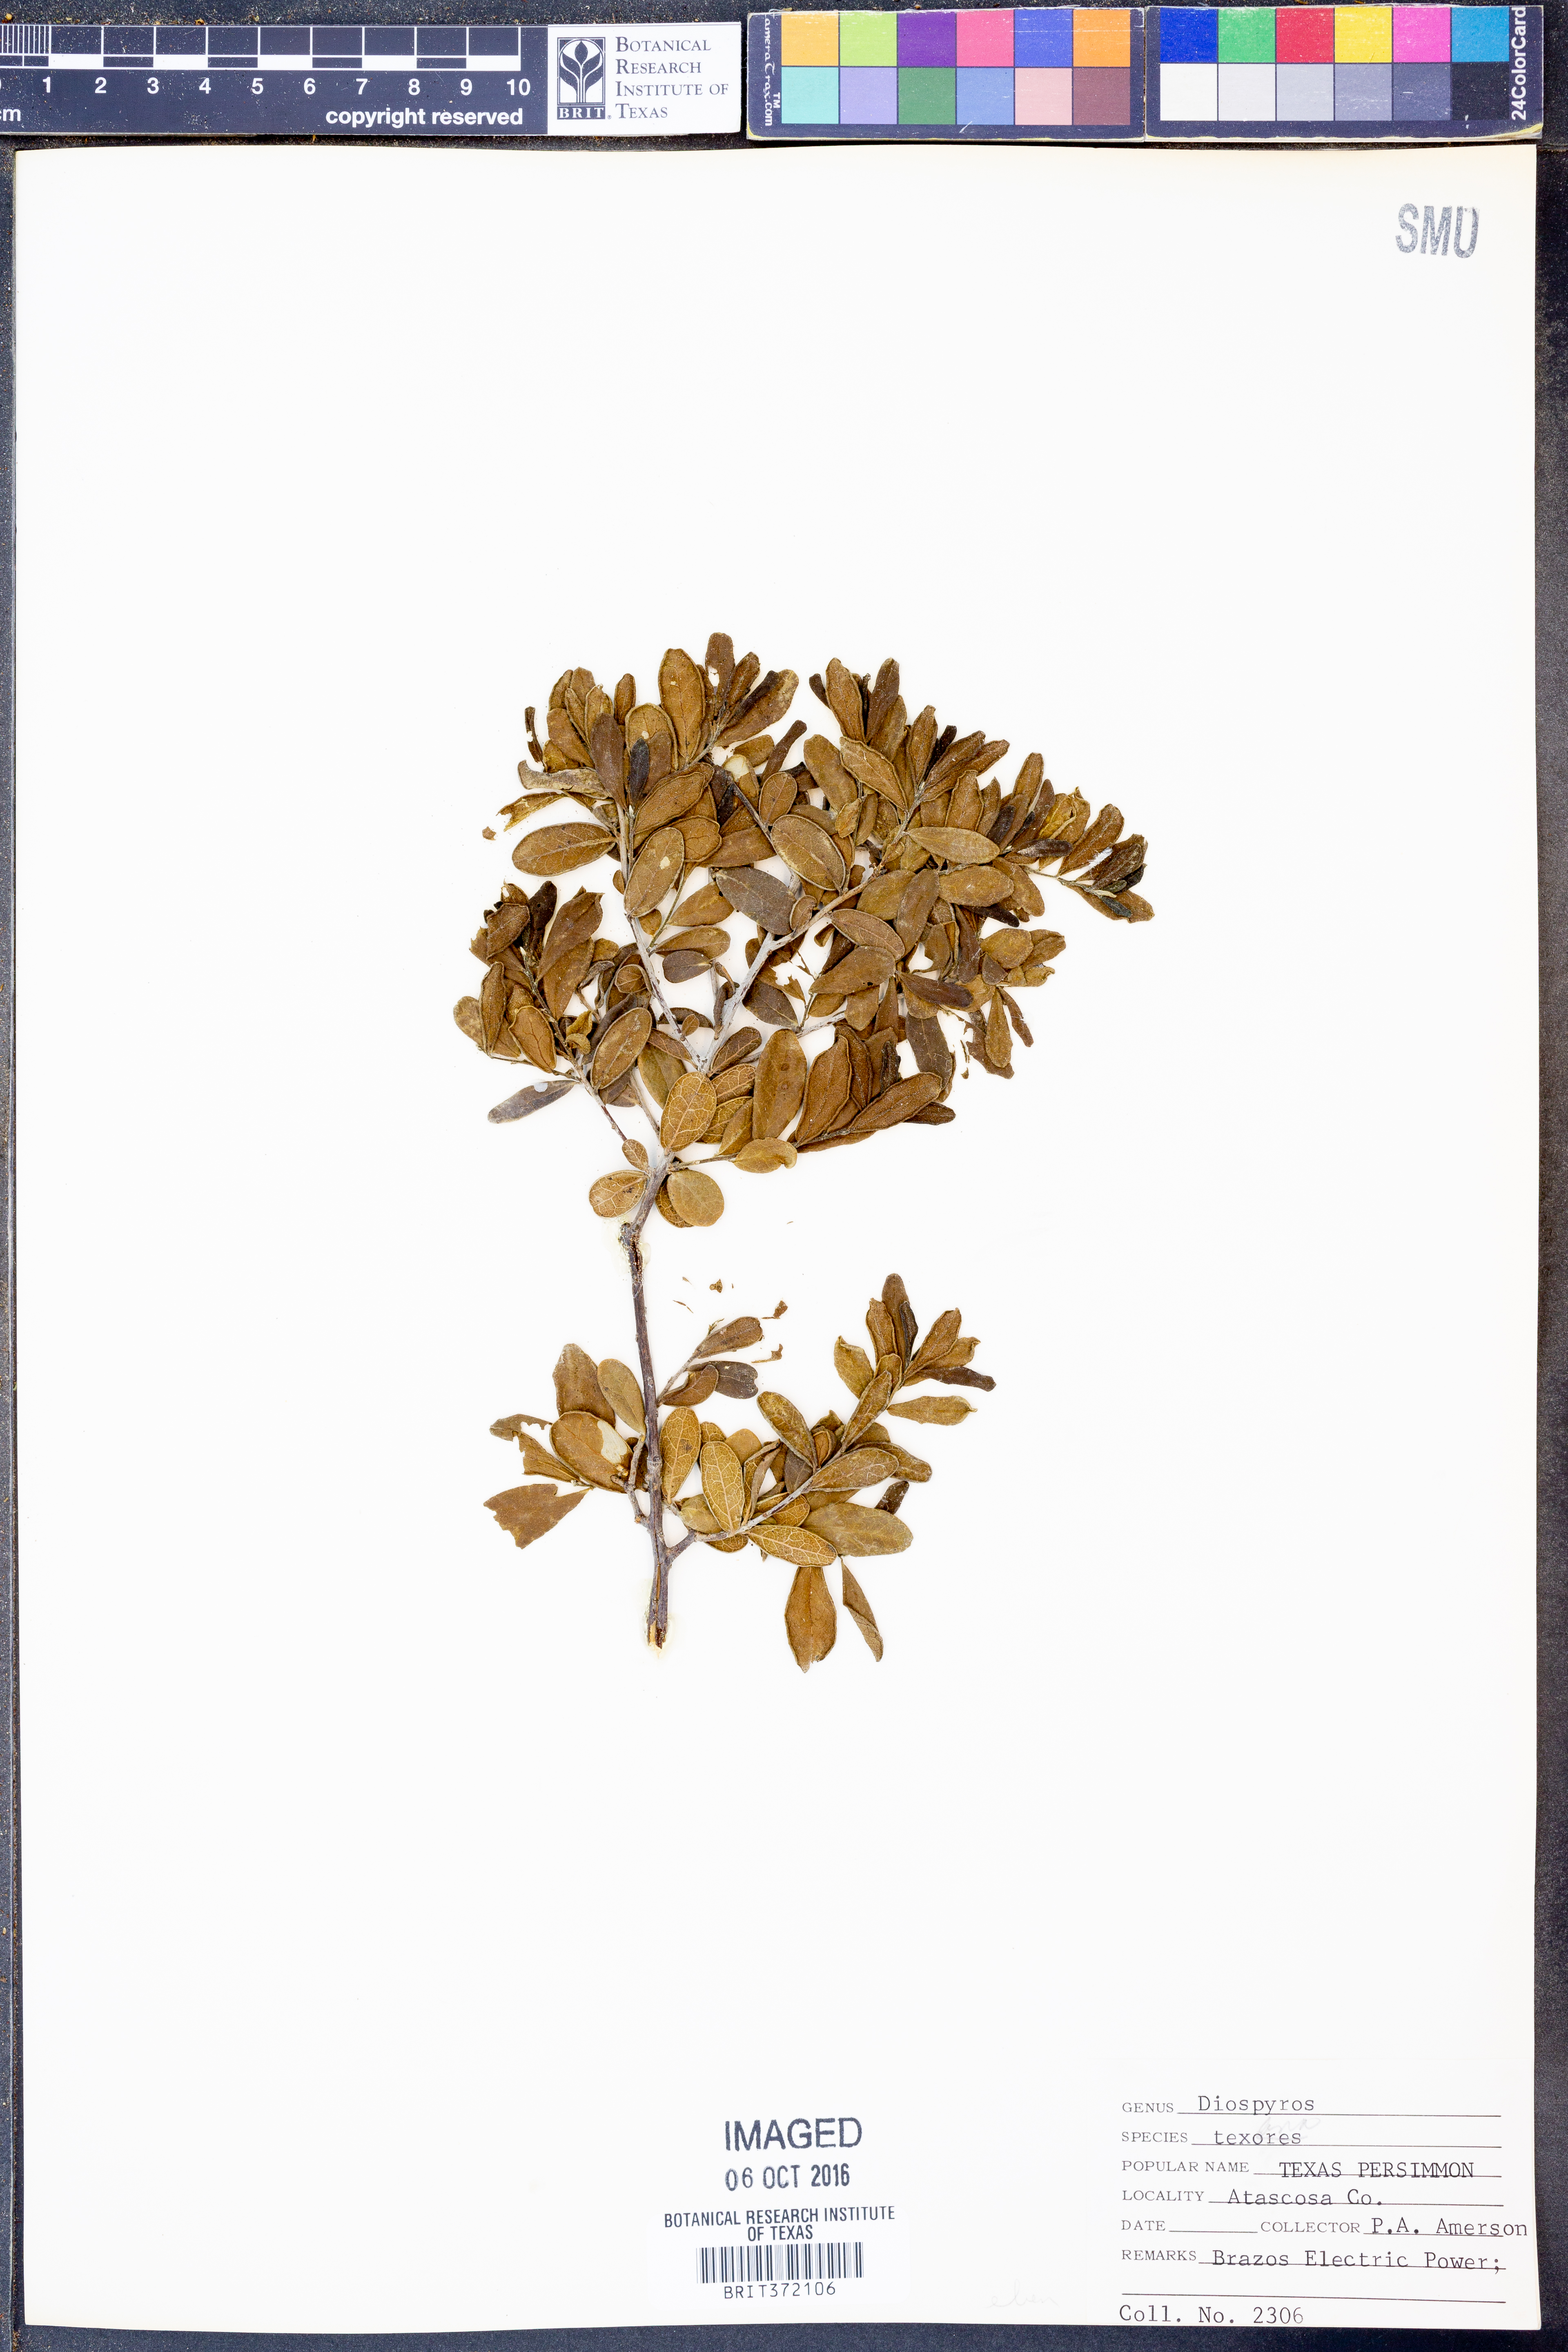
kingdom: Plantae
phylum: Tracheophyta
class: Magnoliopsida
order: Ericales
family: Ebenaceae
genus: Diospyros
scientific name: Diospyros texana
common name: Texas persimmon
